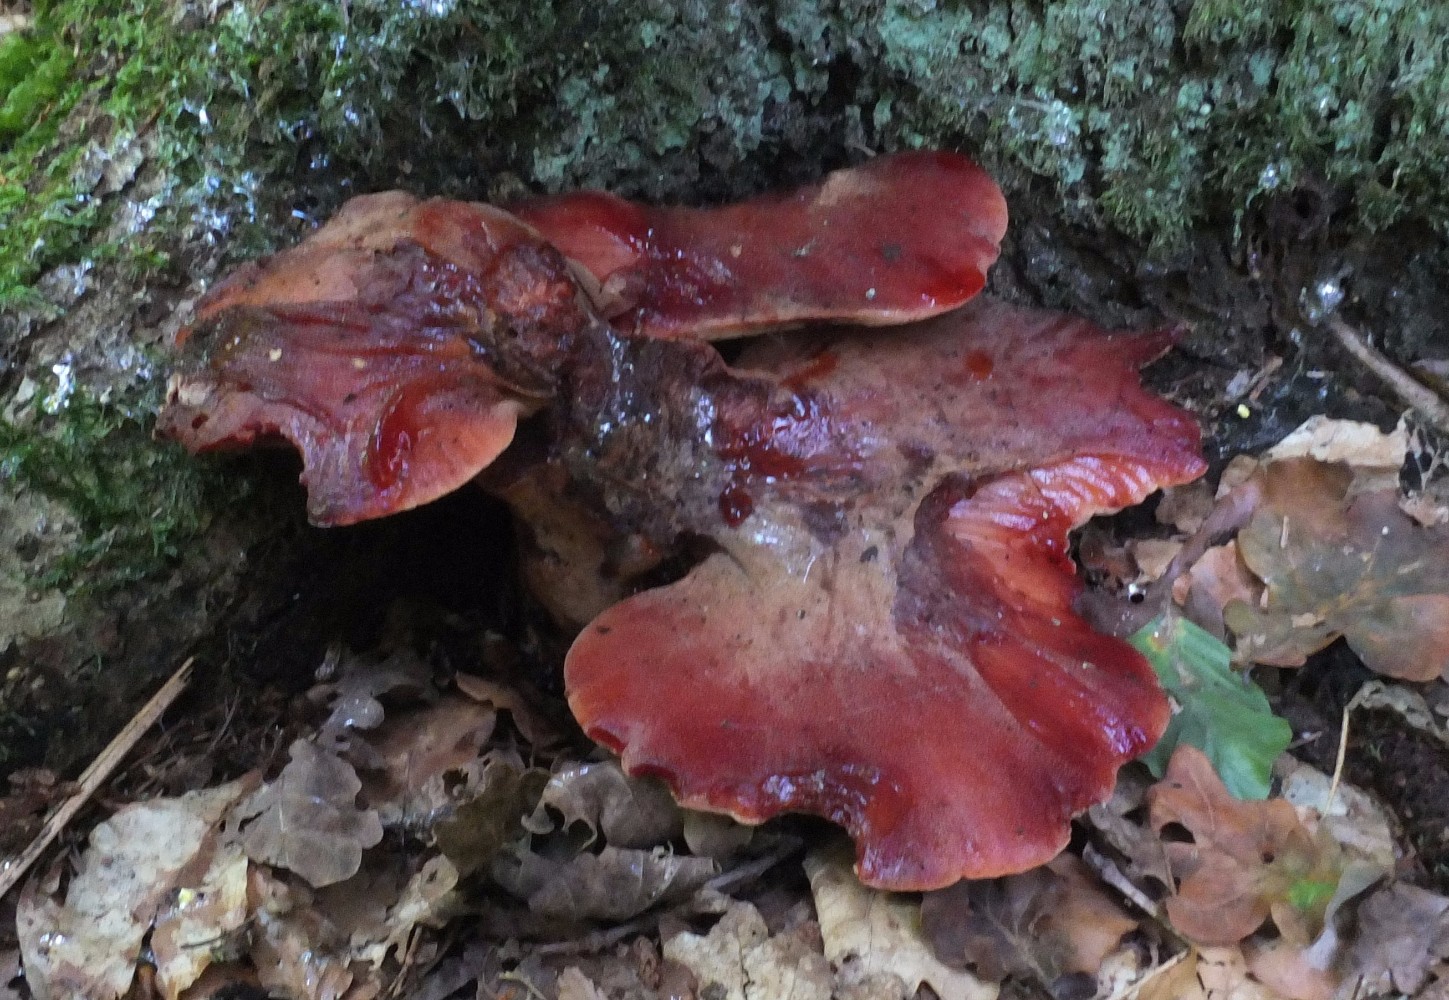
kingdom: Fungi
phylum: Basidiomycota
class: Agaricomycetes
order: Agaricales
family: Fistulinaceae
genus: Fistulina
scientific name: Fistulina hepatica
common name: oksetunge
